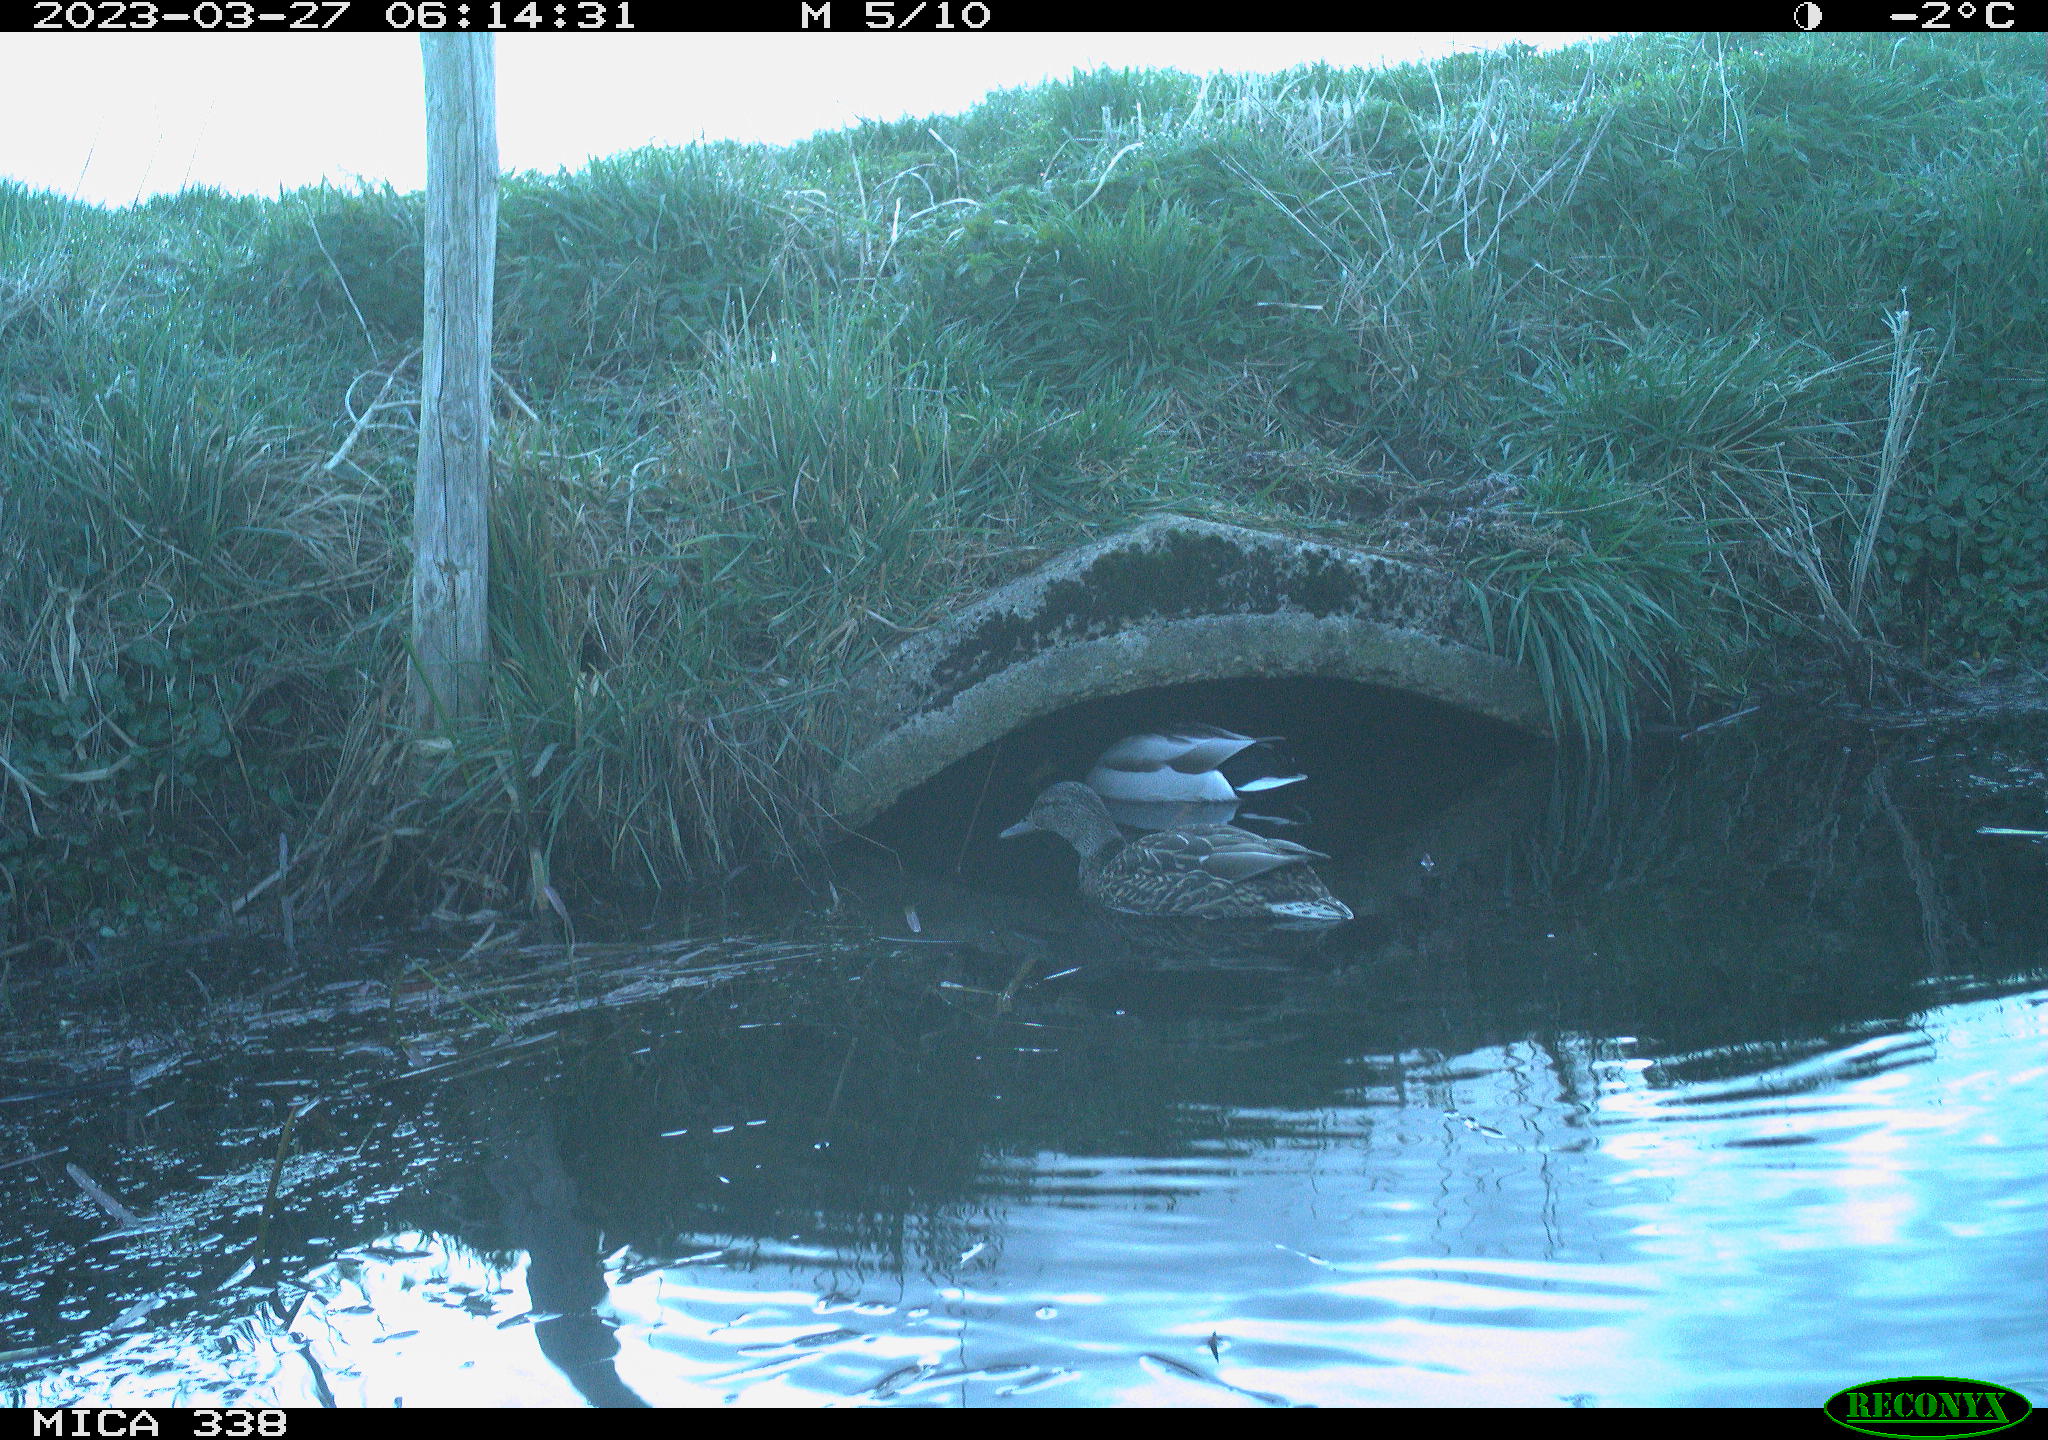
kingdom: Animalia
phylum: Chordata
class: Aves
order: Anseriformes
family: Anatidae
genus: Anas
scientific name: Anas platyrhynchos
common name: Mallard
